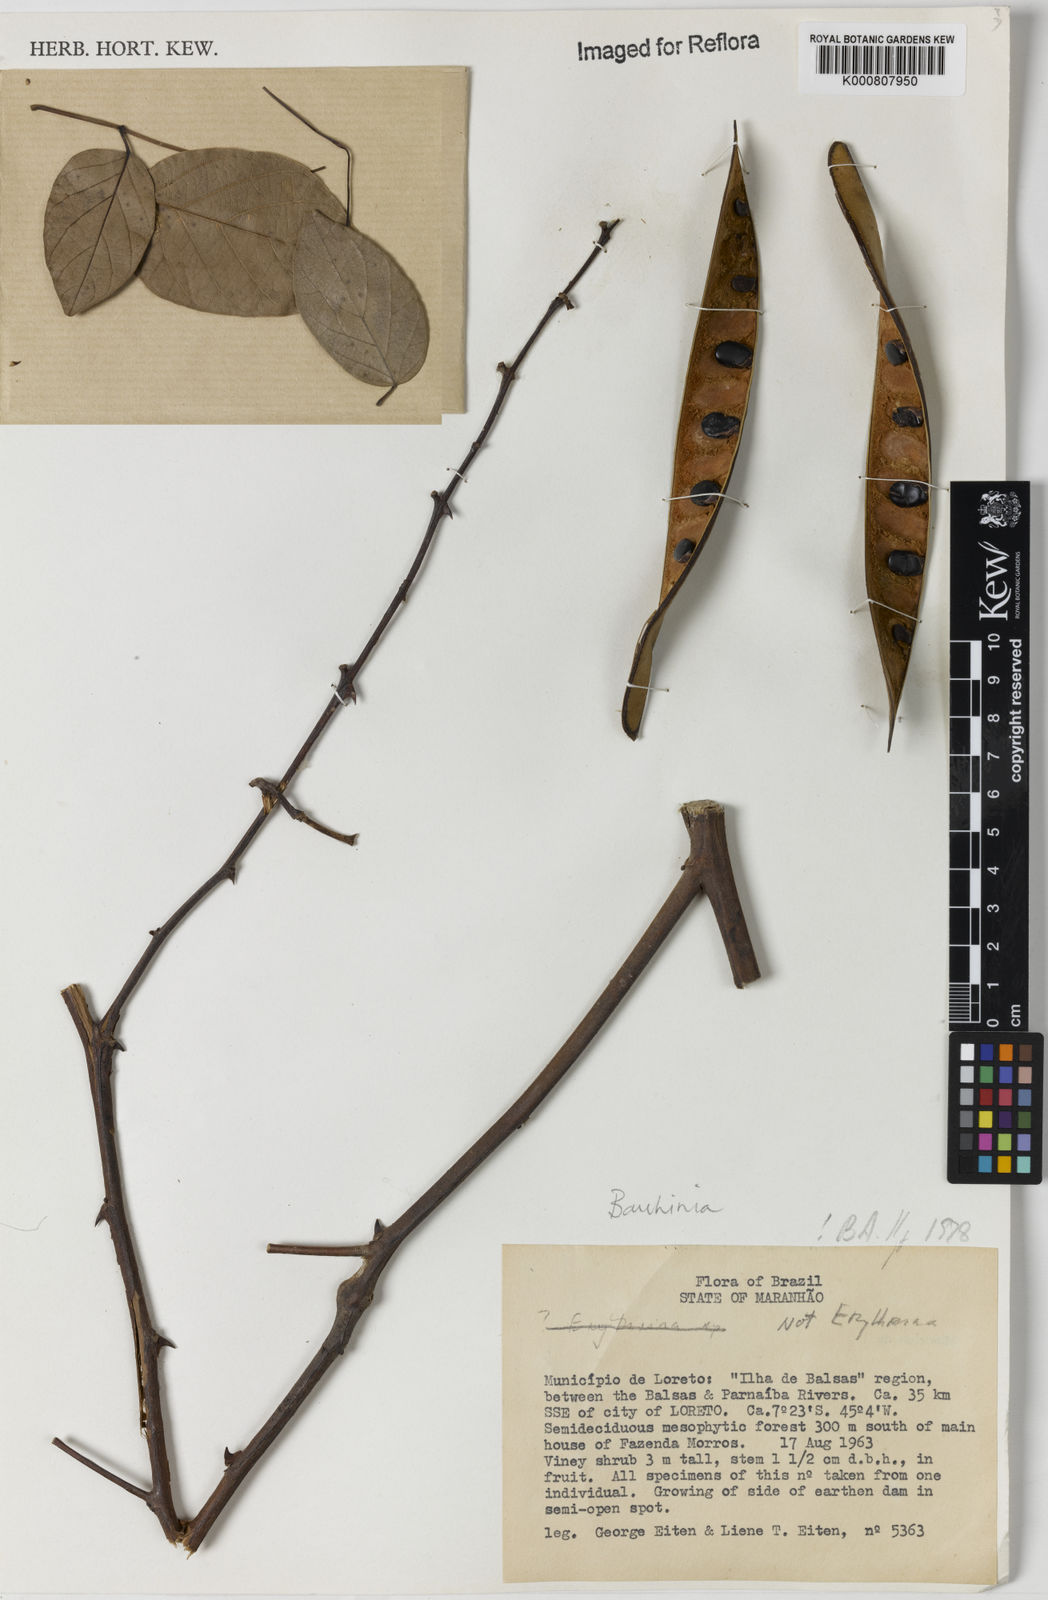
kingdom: Plantae
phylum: Tracheophyta
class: Magnoliopsida
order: Fabales
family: Fabaceae
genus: Bauhinia
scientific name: Bauhinia
